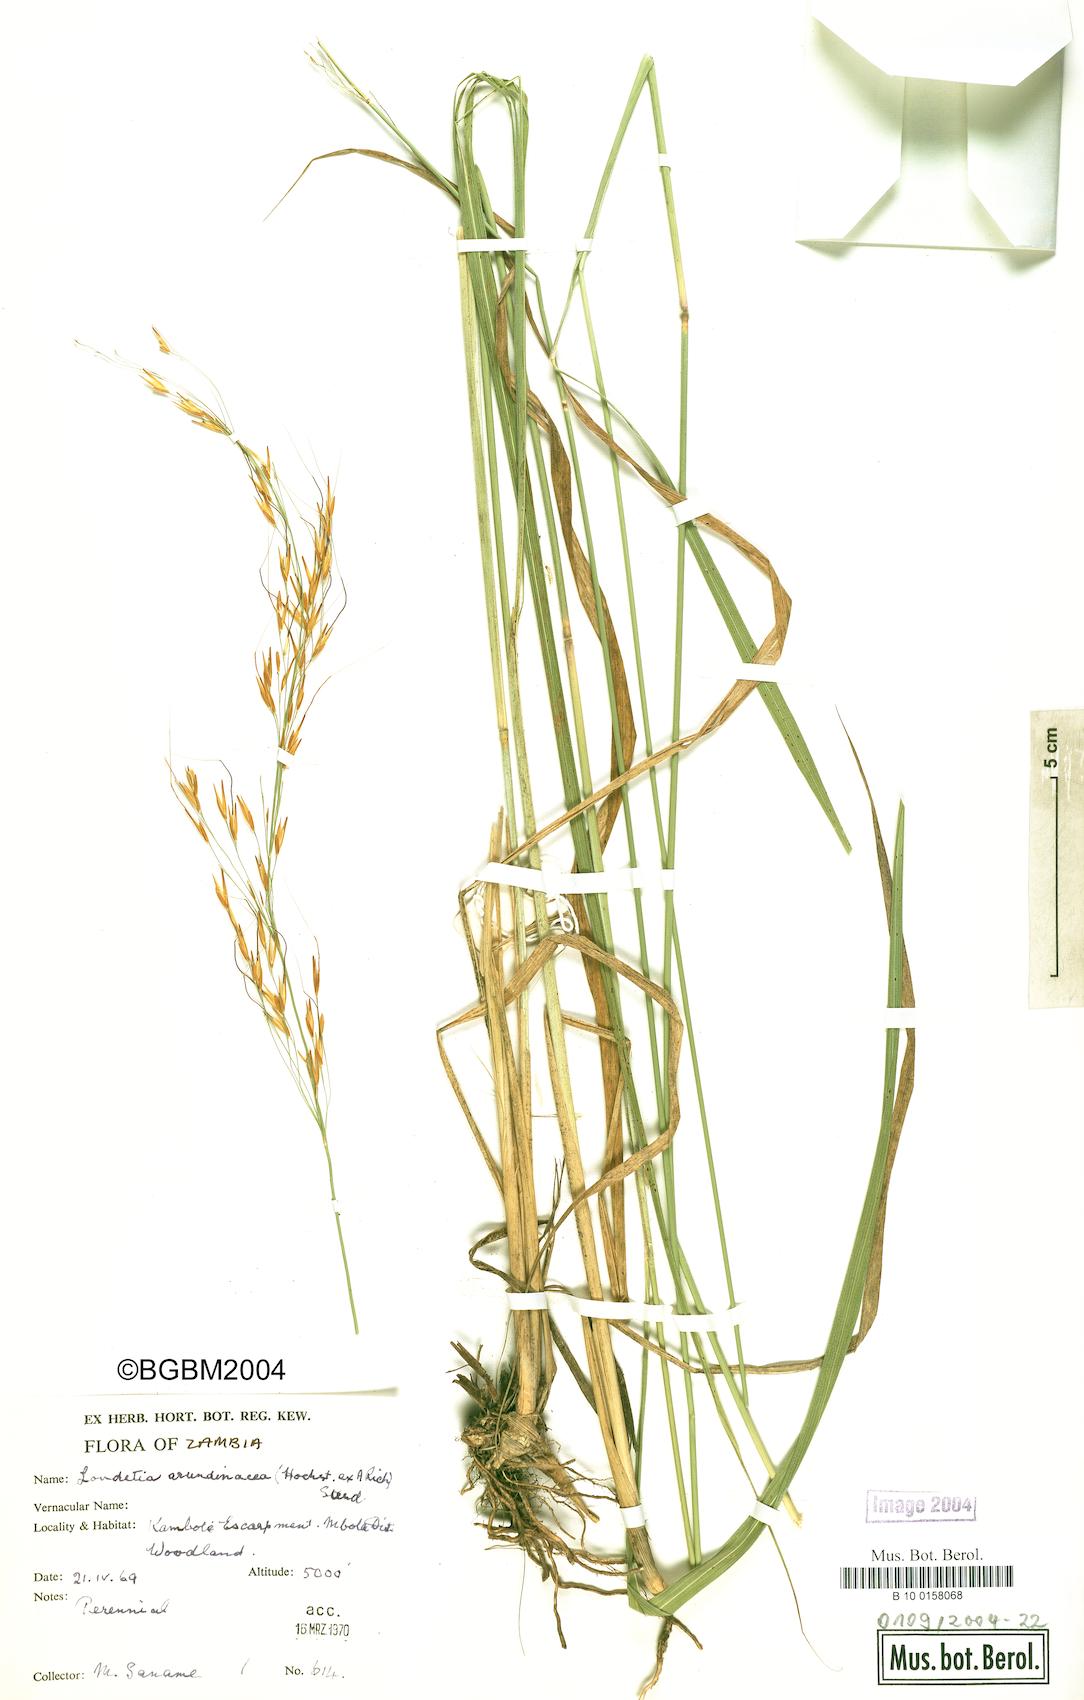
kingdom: Plantae
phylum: Tracheophyta
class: Liliopsida
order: Poales
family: Poaceae
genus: Loudetia
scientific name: Loudetia arundinacea
